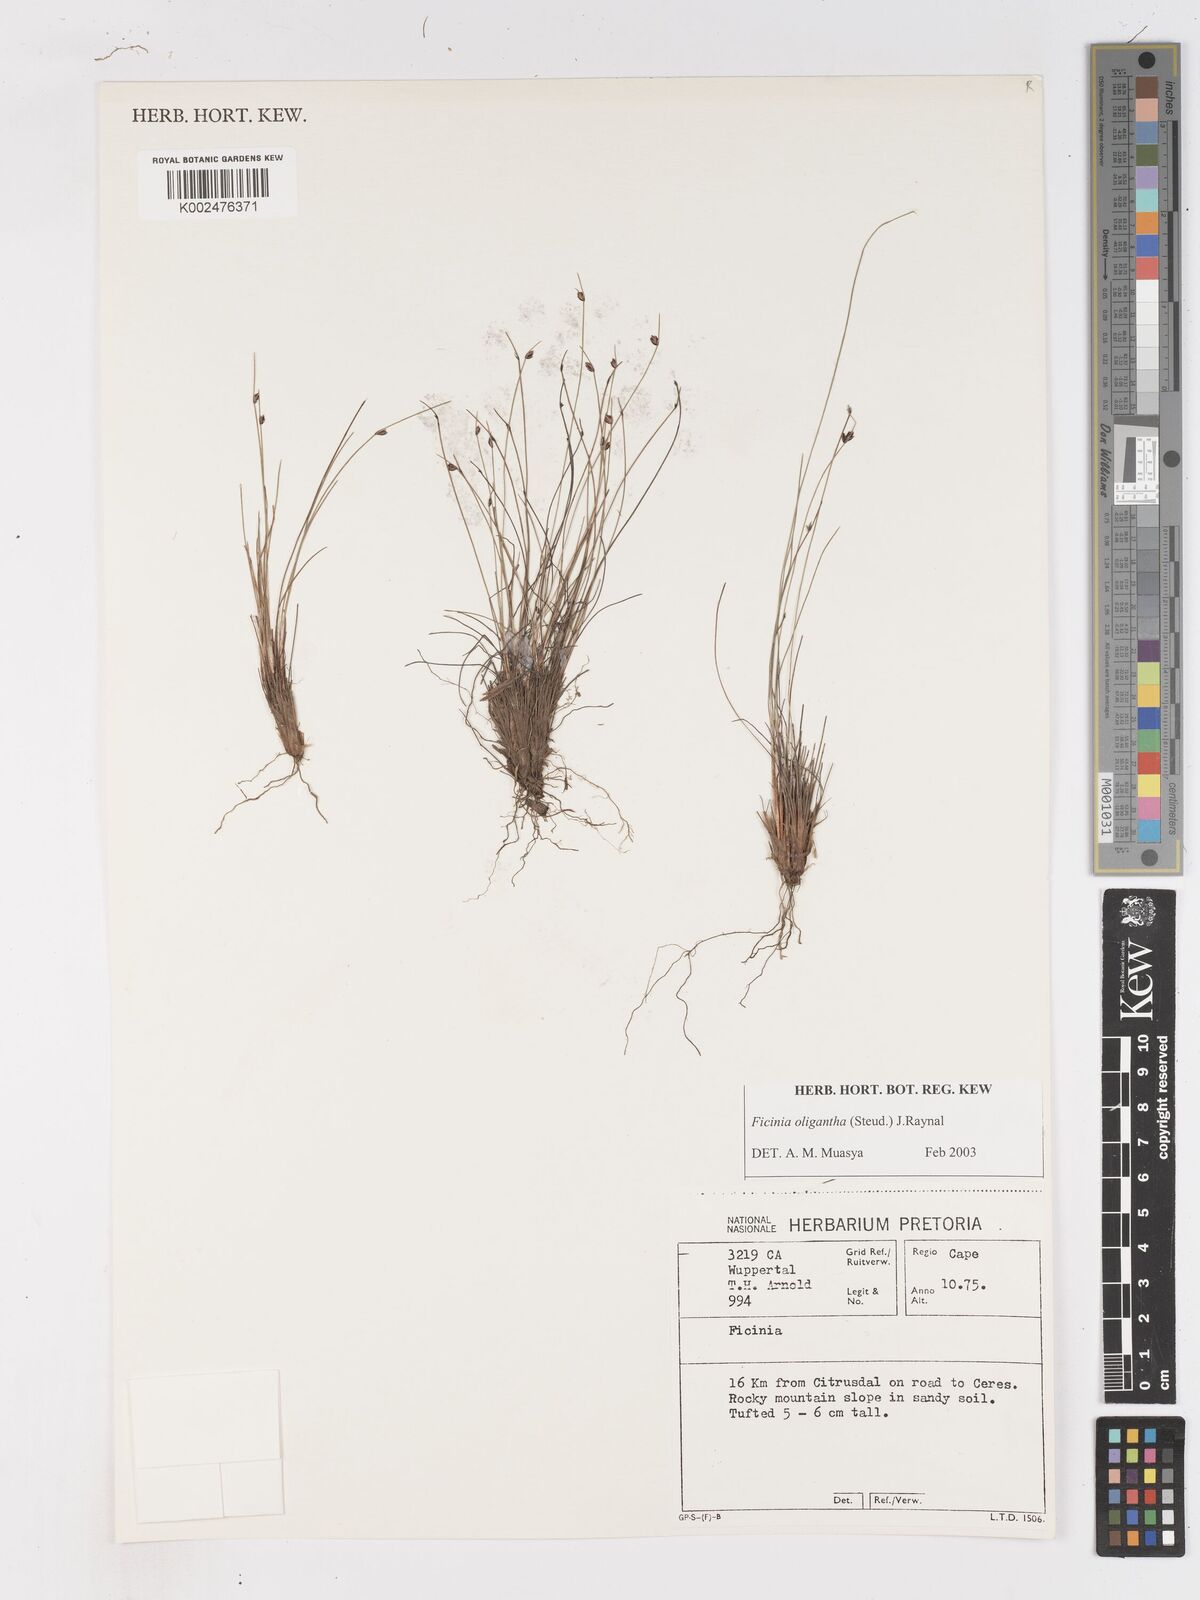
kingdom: Plantae
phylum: Tracheophyta
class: Liliopsida
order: Poales
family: Cyperaceae
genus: Ficinia
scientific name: Ficinia oligantha
